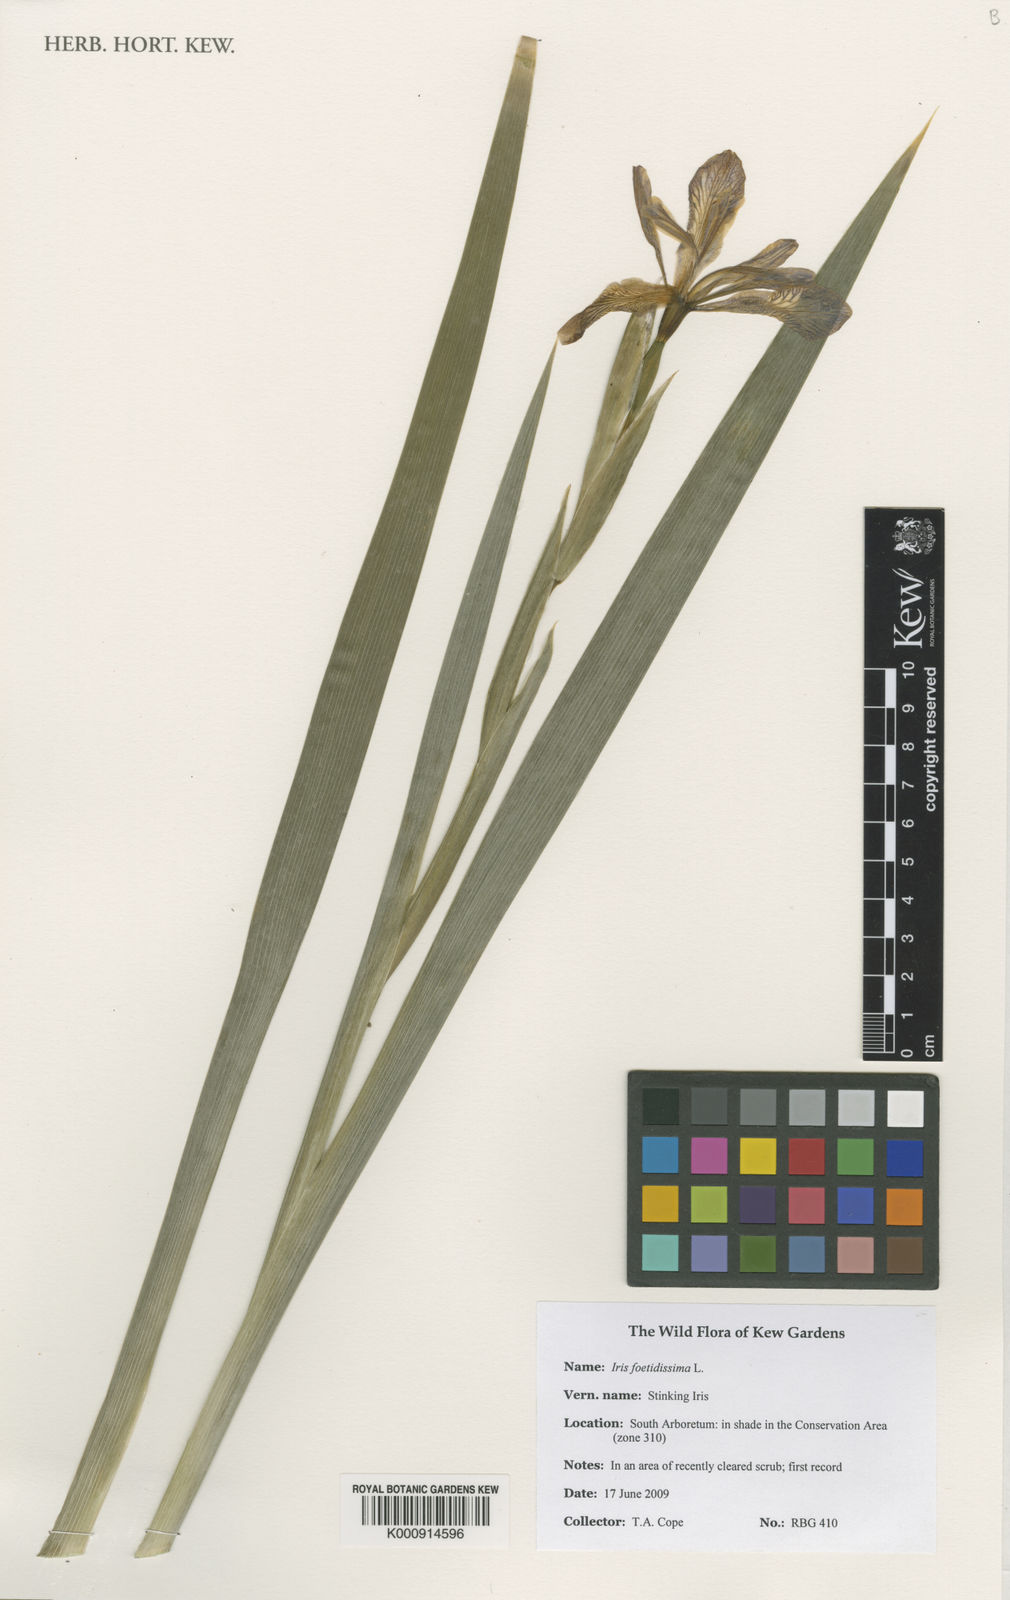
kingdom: Plantae
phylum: Tracheophyta
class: Liliopsida
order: Asparagales
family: Iridaceae
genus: Iris
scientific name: Iris foetidissima
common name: Stinking iris
